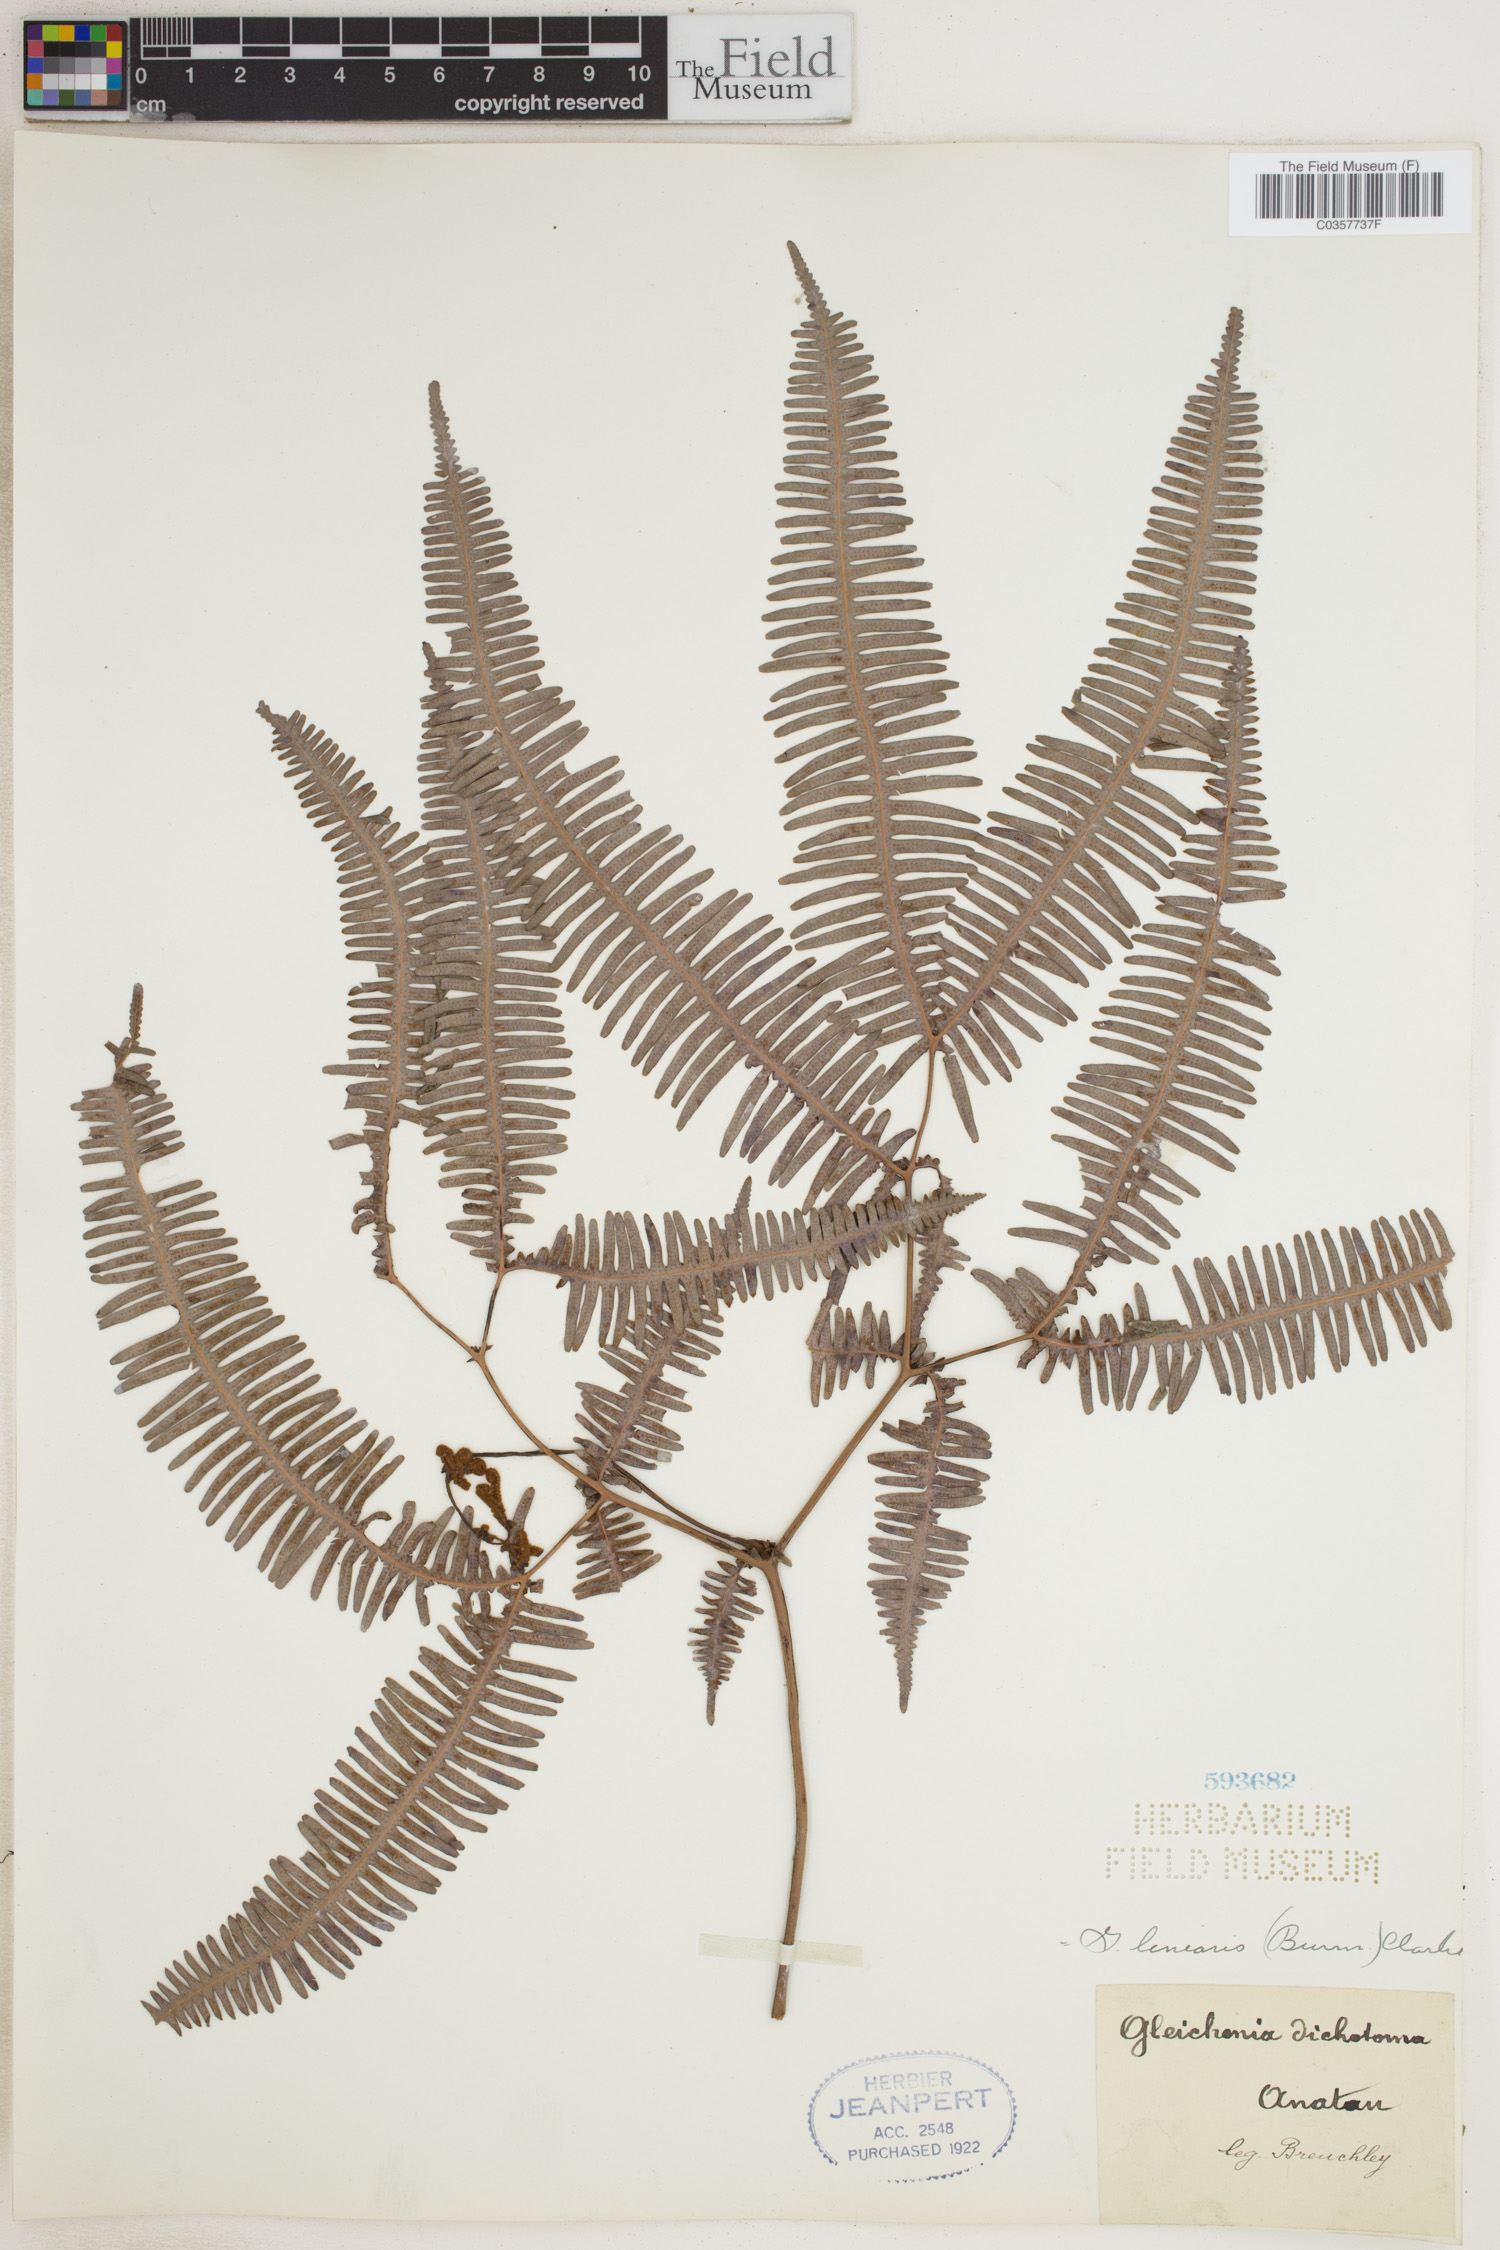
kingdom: Plantae
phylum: Tracheophyta
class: Polypodiopsida
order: Gleicheniales
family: Gleicheniaceae
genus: Dicranopteris
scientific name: Dicranopteris linearis
